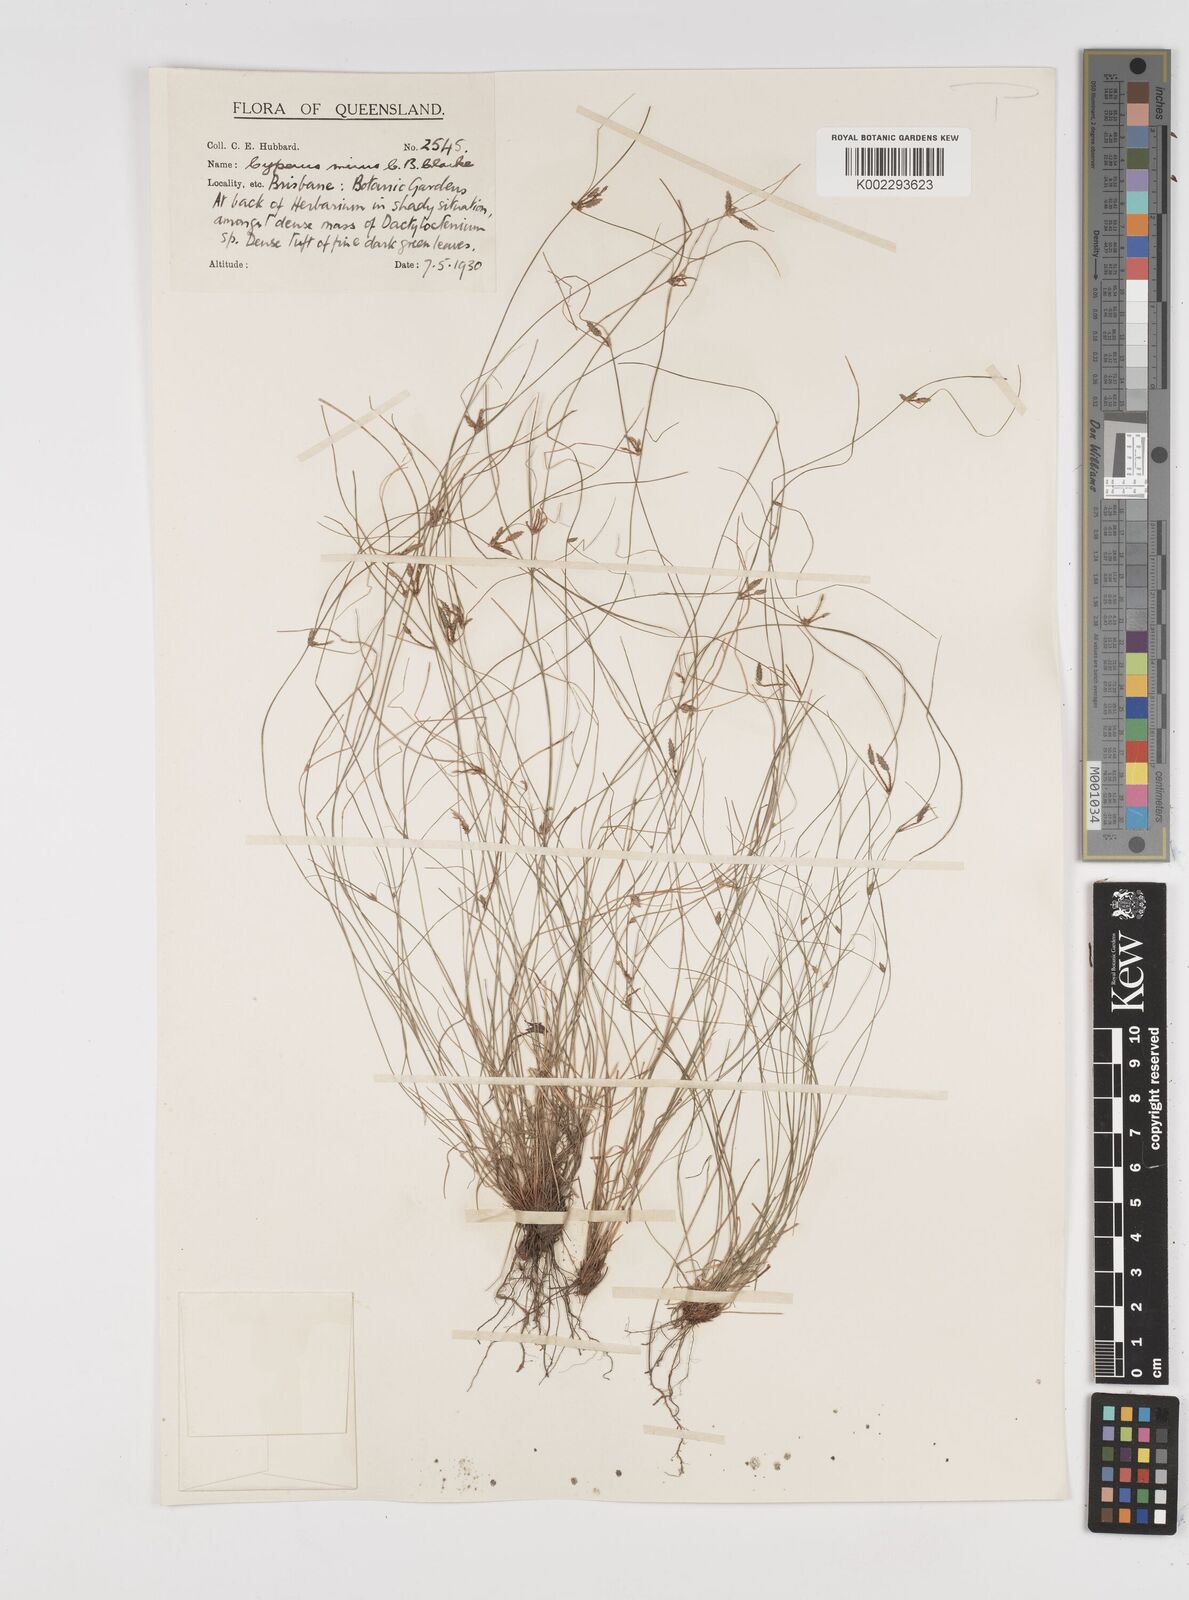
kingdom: Plantae
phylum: Tracheophyta
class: Liliopsida
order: Poales
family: Cyperaceae
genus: Cyperus
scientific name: Cyperus mirus
